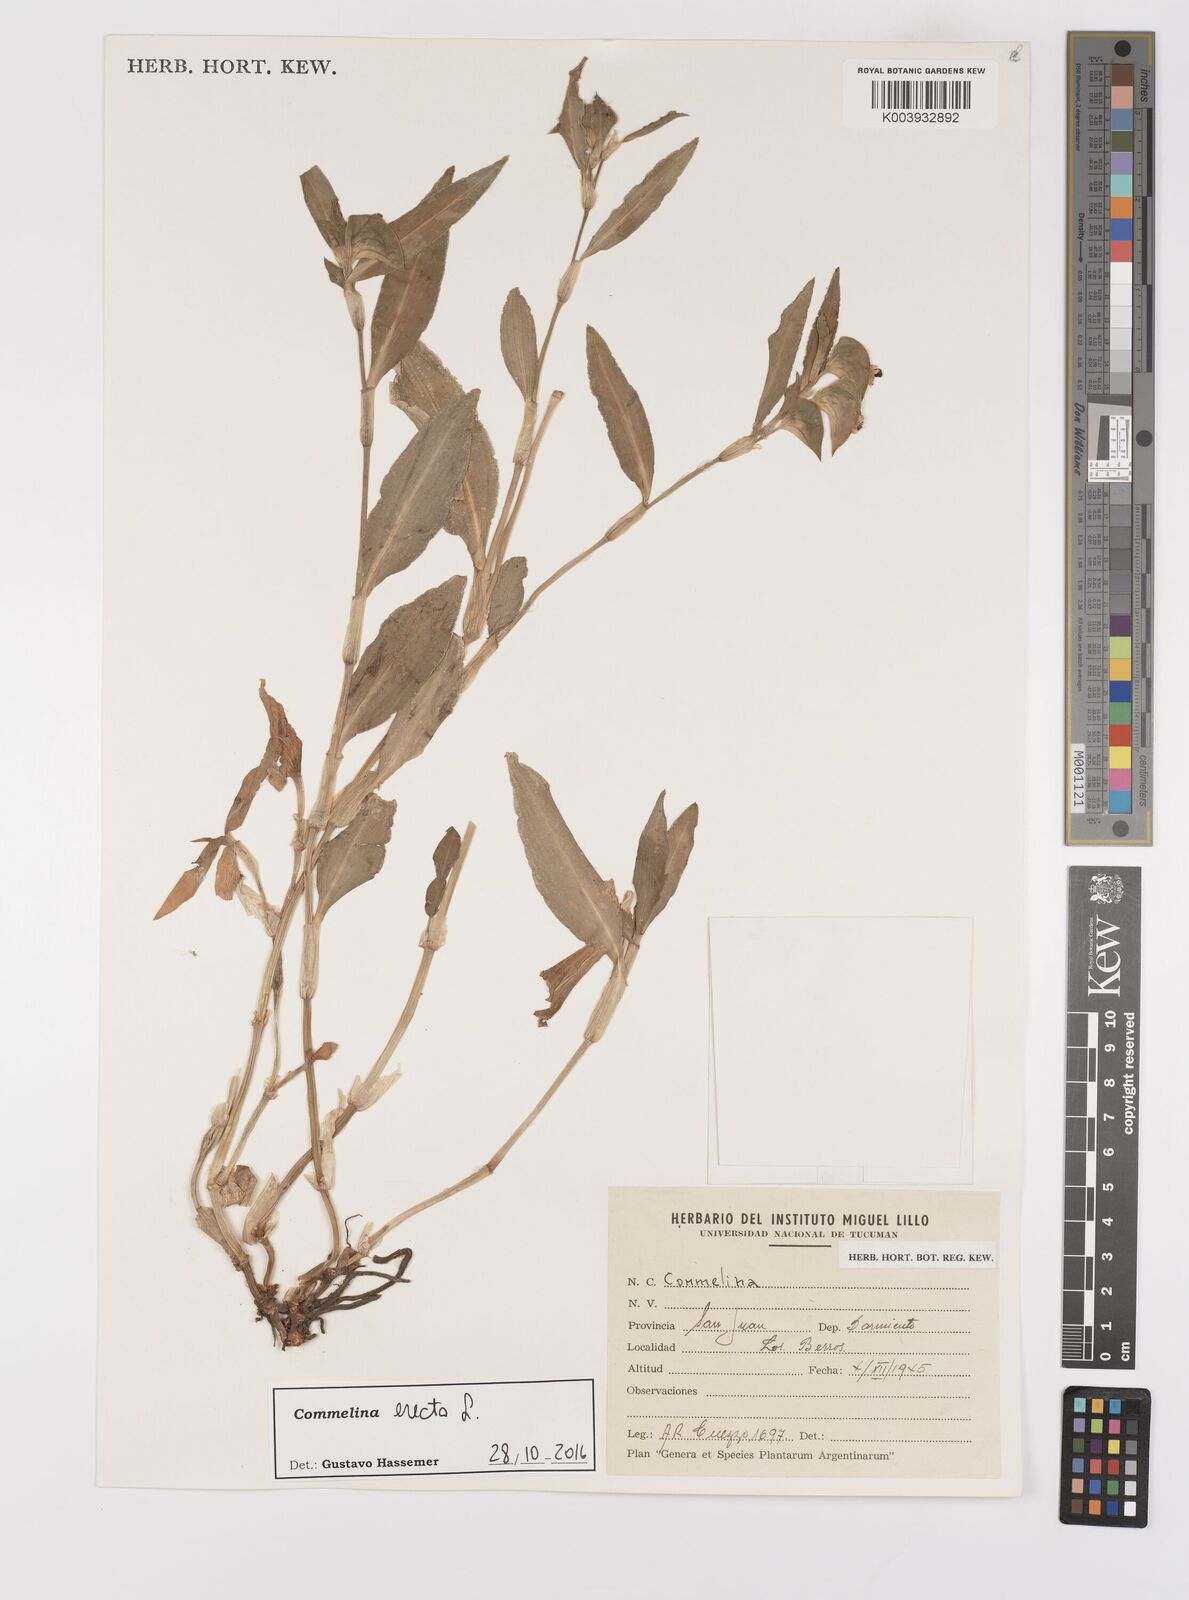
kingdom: Plantae
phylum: Tracheophyta
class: Liliopsida
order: Commelinales
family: Commelinaceae
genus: Commelina
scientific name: Commelina erecta
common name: Blousel blommetjie
